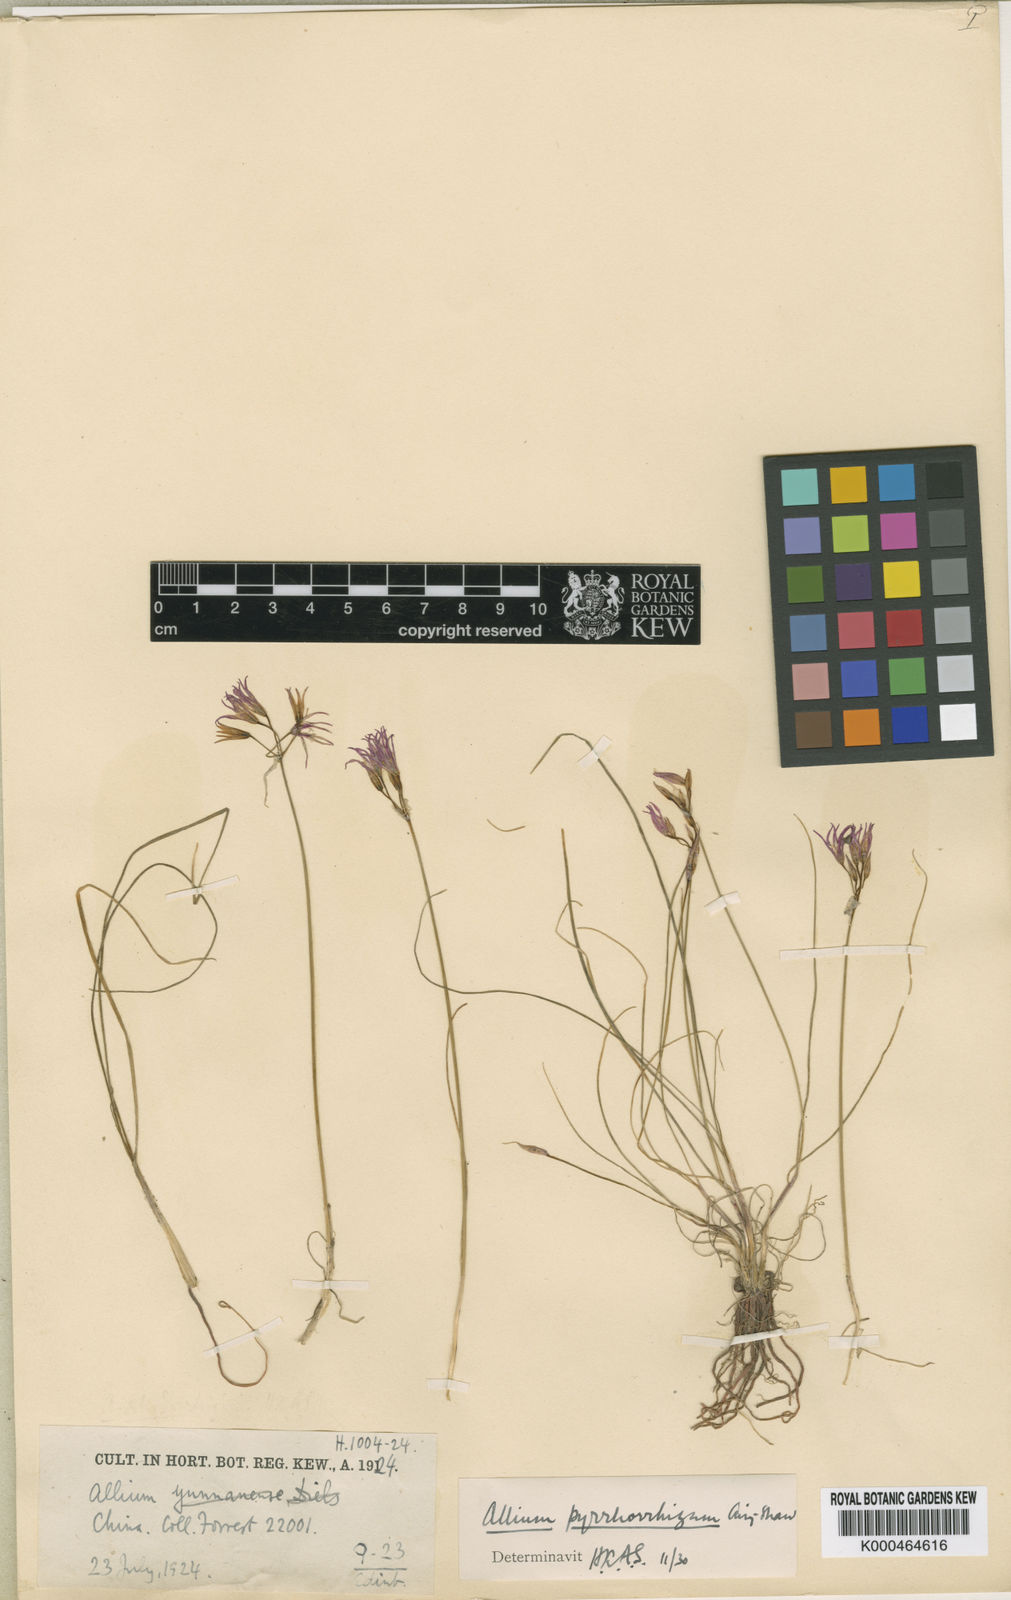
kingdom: Plantae
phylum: Tracheophyta
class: Liliopsida
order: Asparagales
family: Amaryllidaceae
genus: Allium
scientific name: Allium mairei
